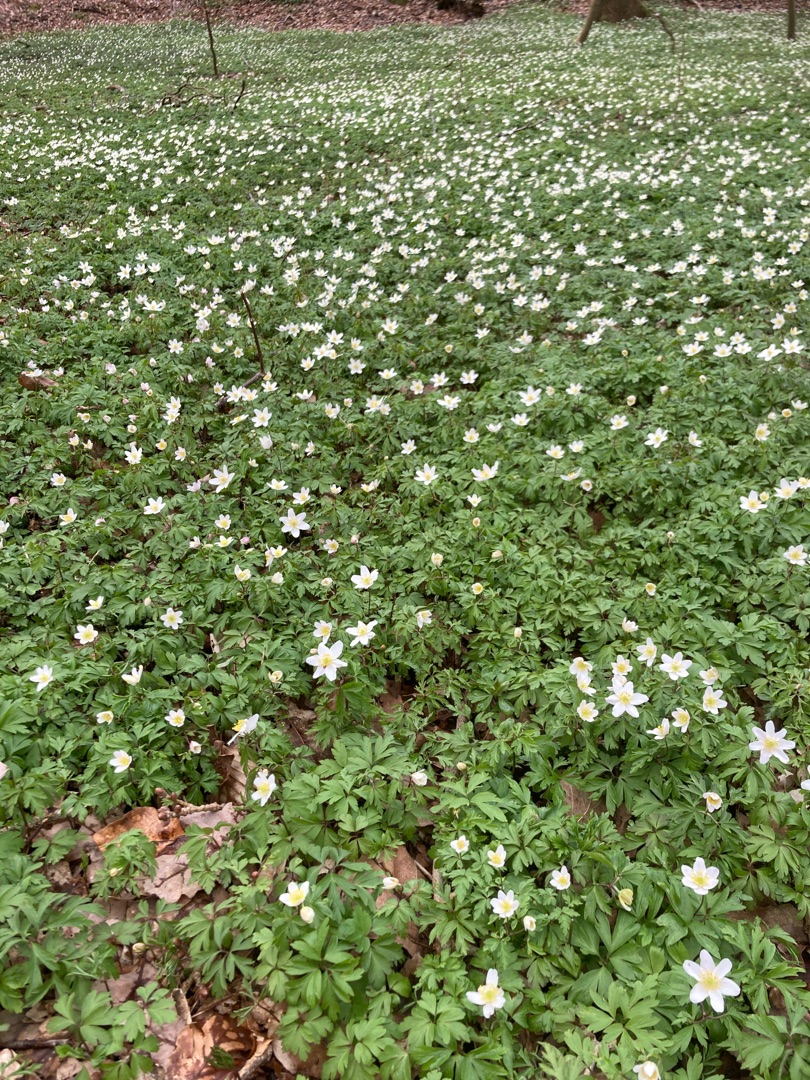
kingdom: Plantae
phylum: Tracheophyta
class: Magnoliopsida
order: Ranunculales
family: Ranunculaceae
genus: Anemone
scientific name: Anemone nemorosa
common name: Hvid anemone
